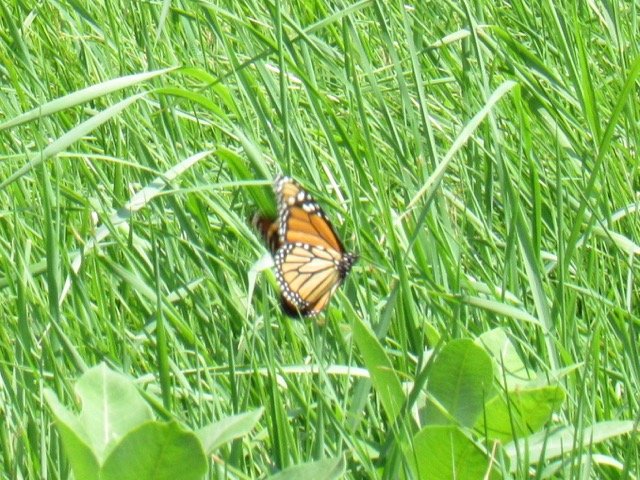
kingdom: Animalia
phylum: Arthropoda
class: Insecta
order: Lepidoptera
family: Nymphalidae
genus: Danaus
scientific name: Danaus plexippus
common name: Monarch
